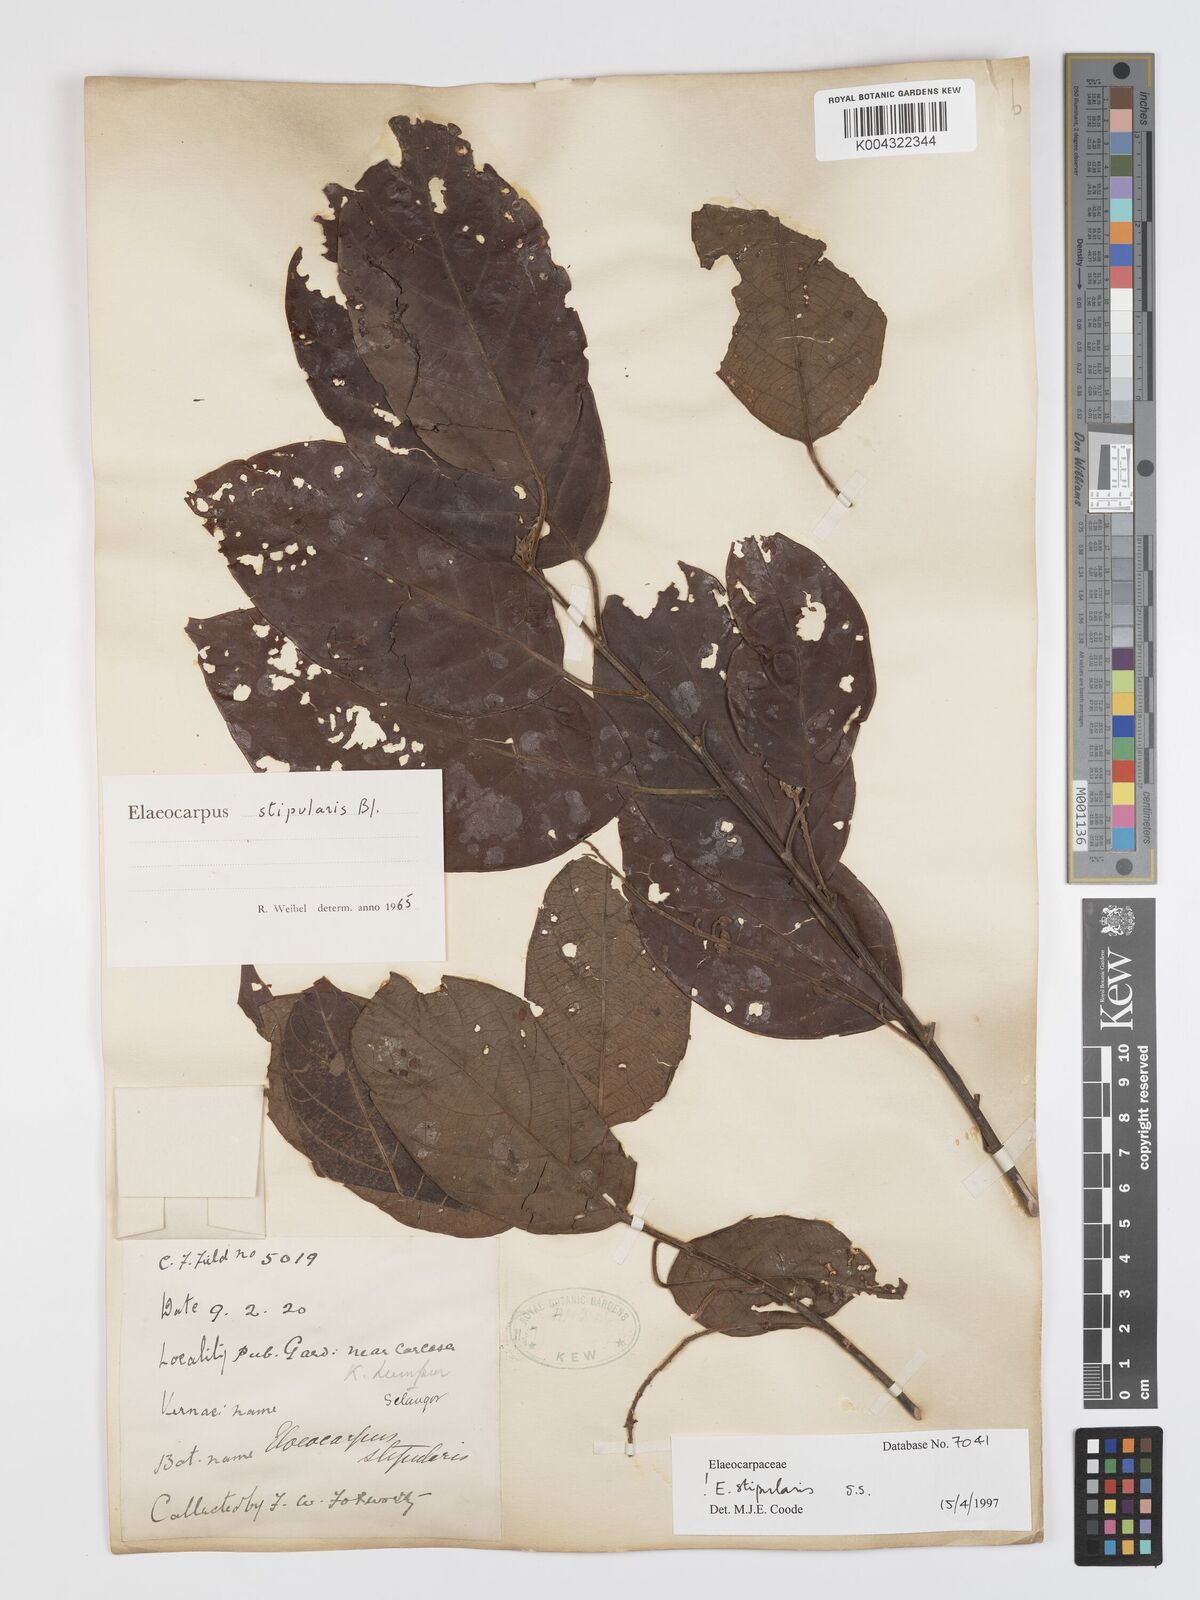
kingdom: Plantae
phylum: Tracheophyta
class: Magnoliopsida
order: Oxalidales
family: Elaeocarpaceae
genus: Elaeocarpus
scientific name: Elaeocarpus stipularis
